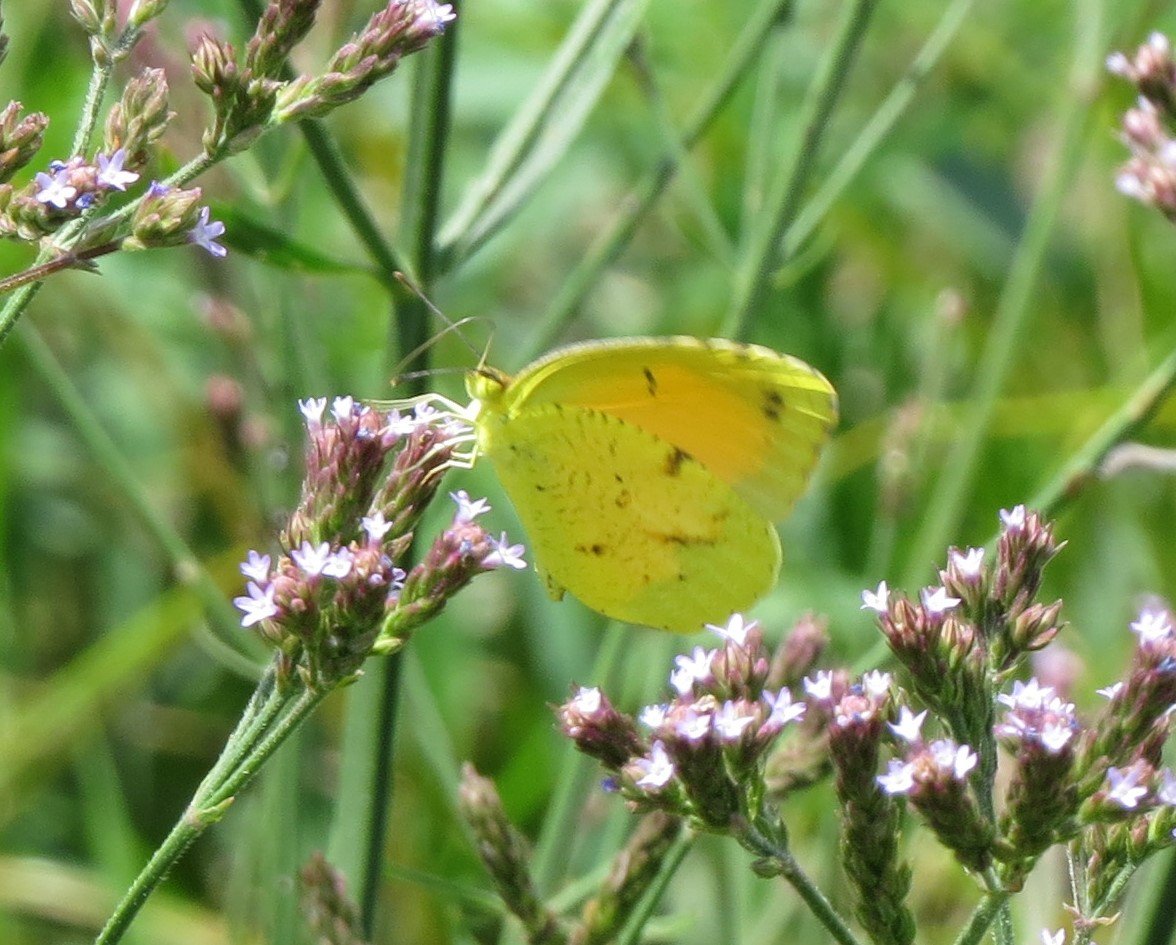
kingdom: Animalia
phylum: Arthropoda
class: Insecta
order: Lepidoptera
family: Pieridae
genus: Abaeis
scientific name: Abaeis nicippe
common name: Sleepy Orange
